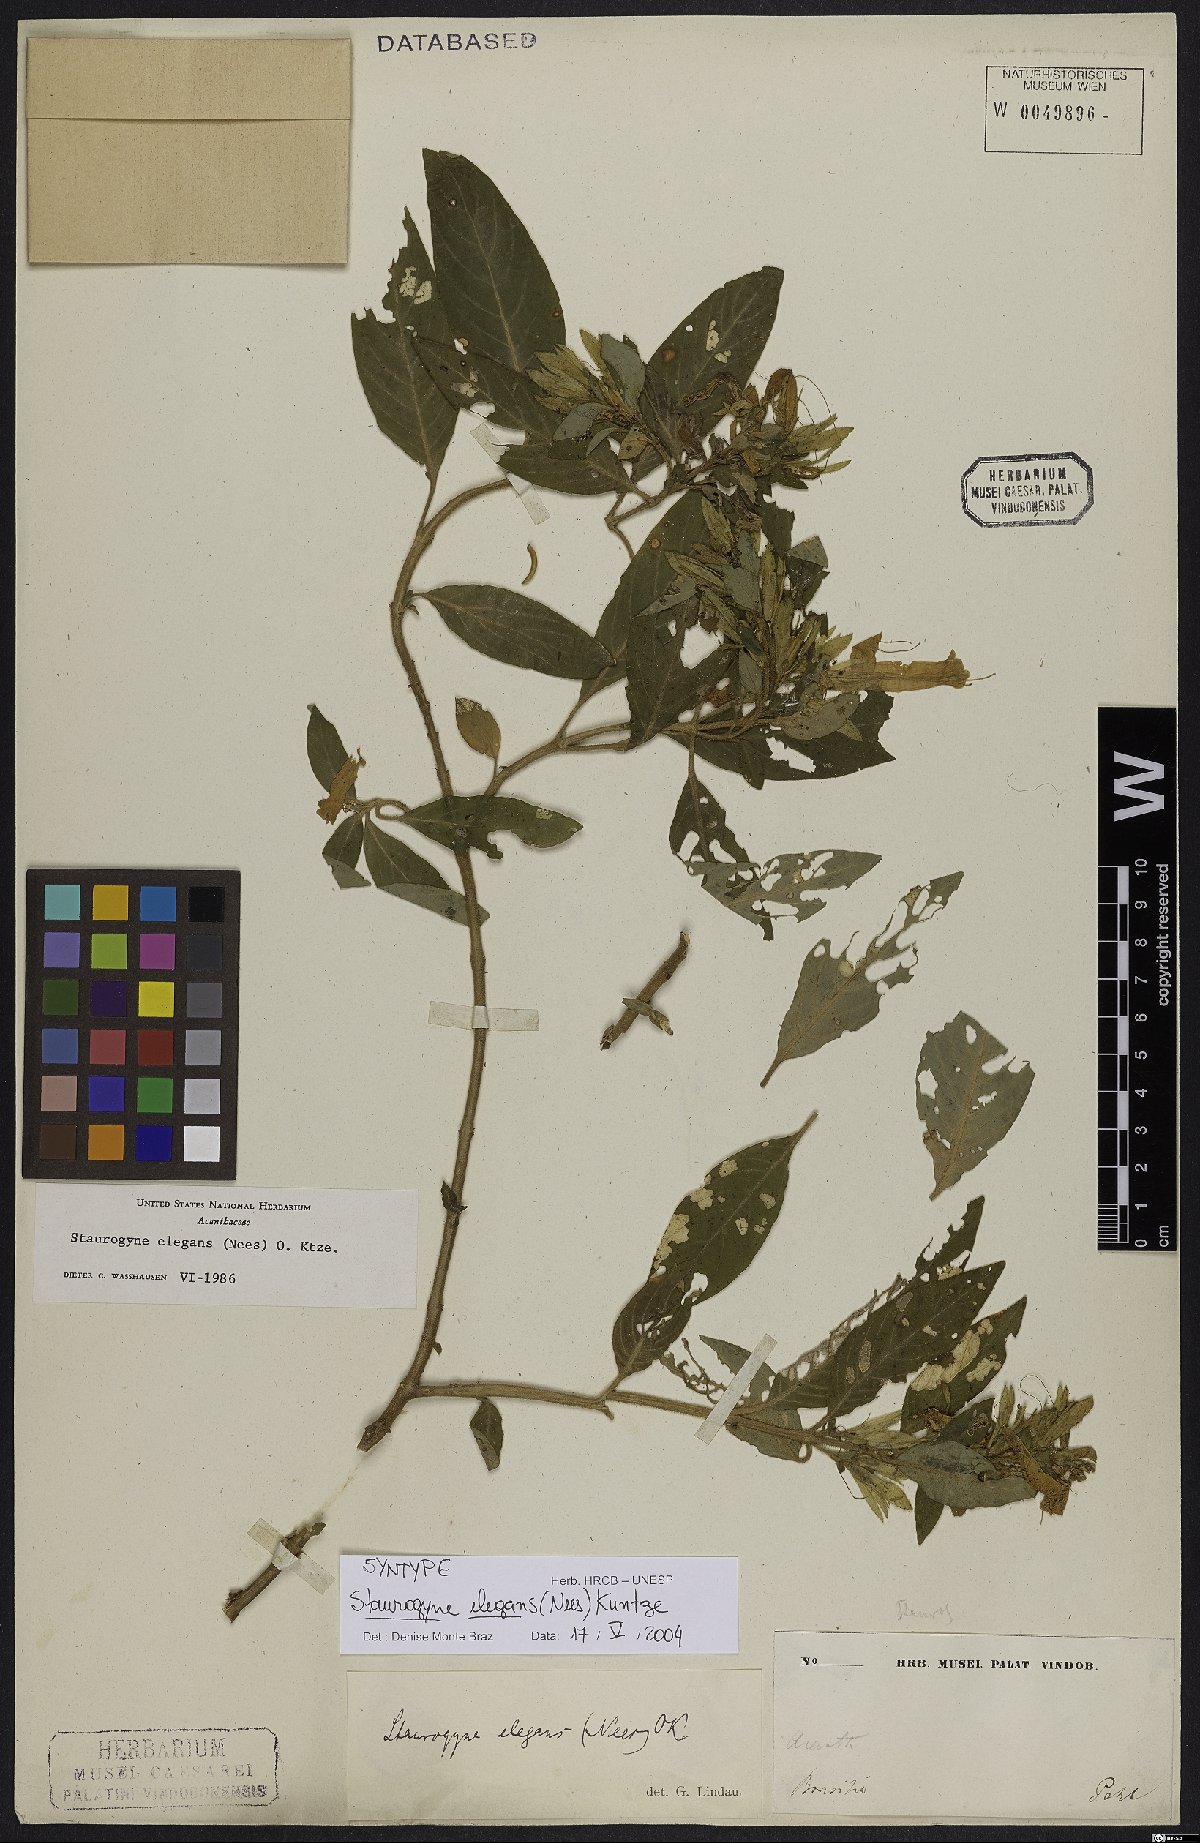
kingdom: Plantae
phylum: Tracheophyta
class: Magnoliopsida
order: Lamiales
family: Acanthaceae
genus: Staurogyne
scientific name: Staurogyne elegans
